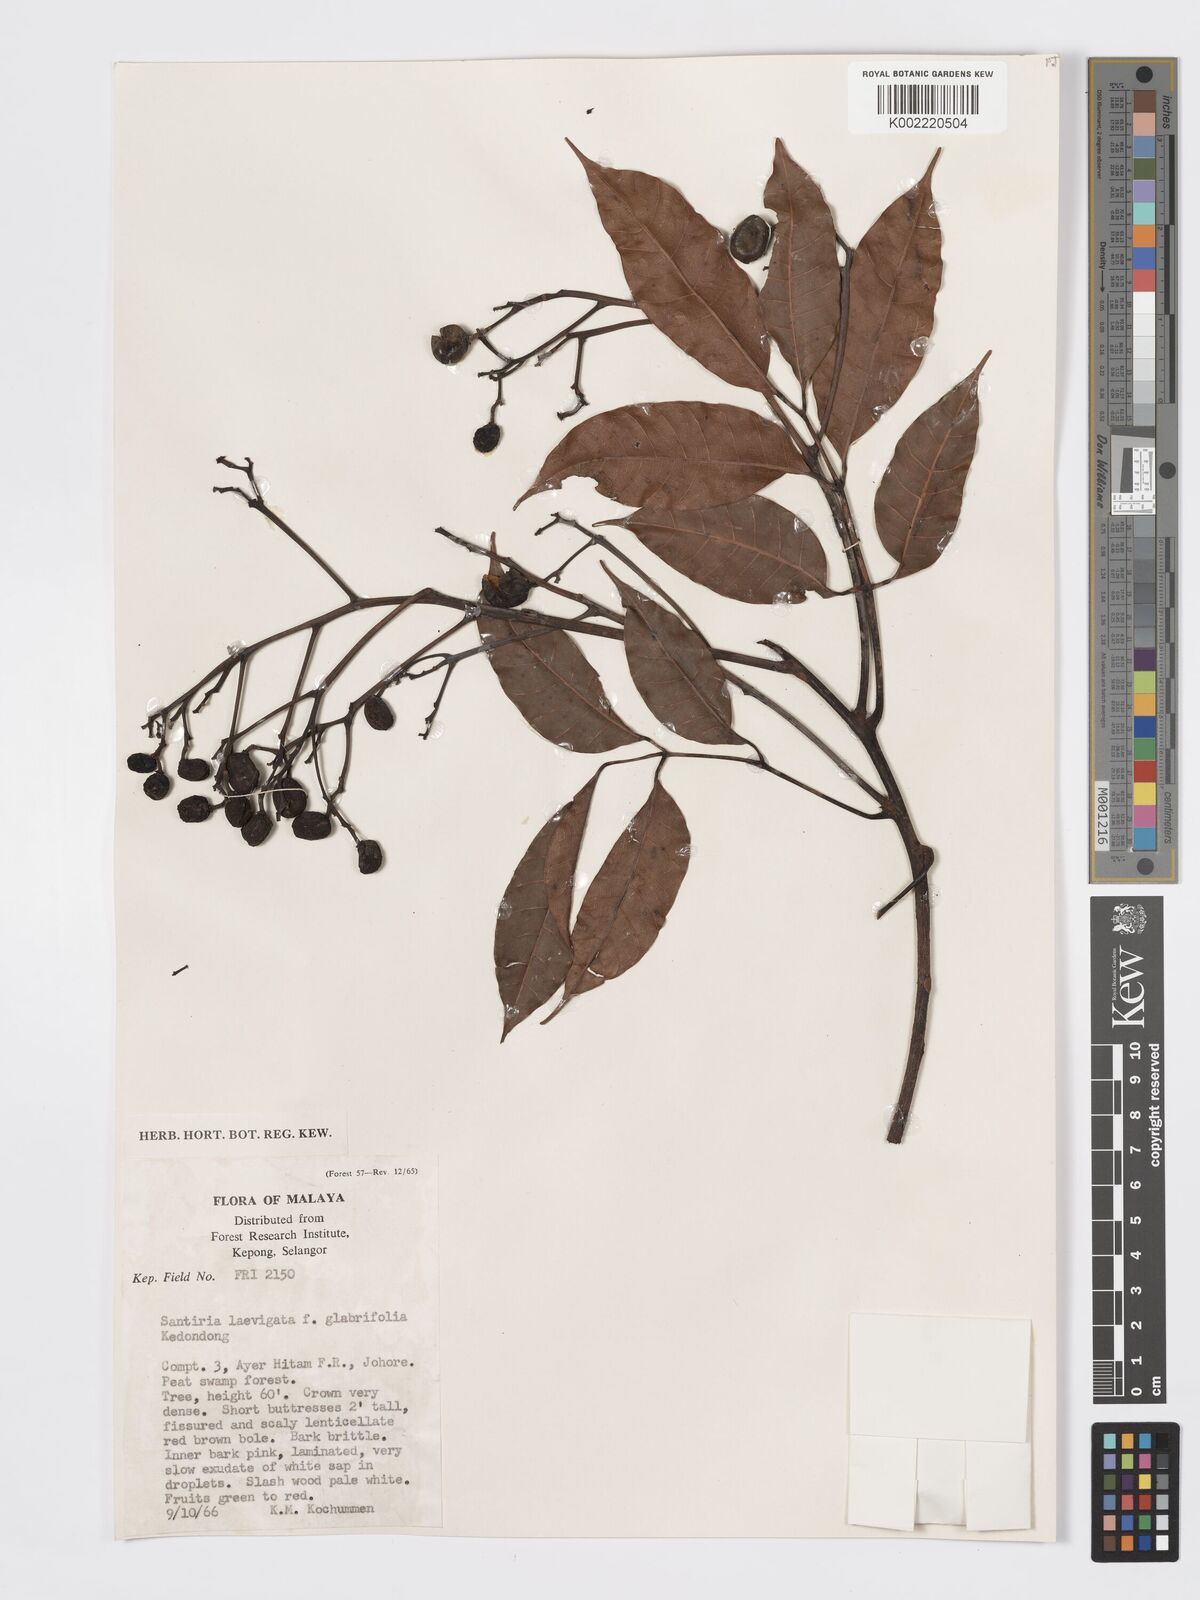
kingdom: Plantae
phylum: Tracheophyta
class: Magnoliopsida
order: Sapindales
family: Burseraceae
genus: Santiria
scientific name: Santiria laevigata
